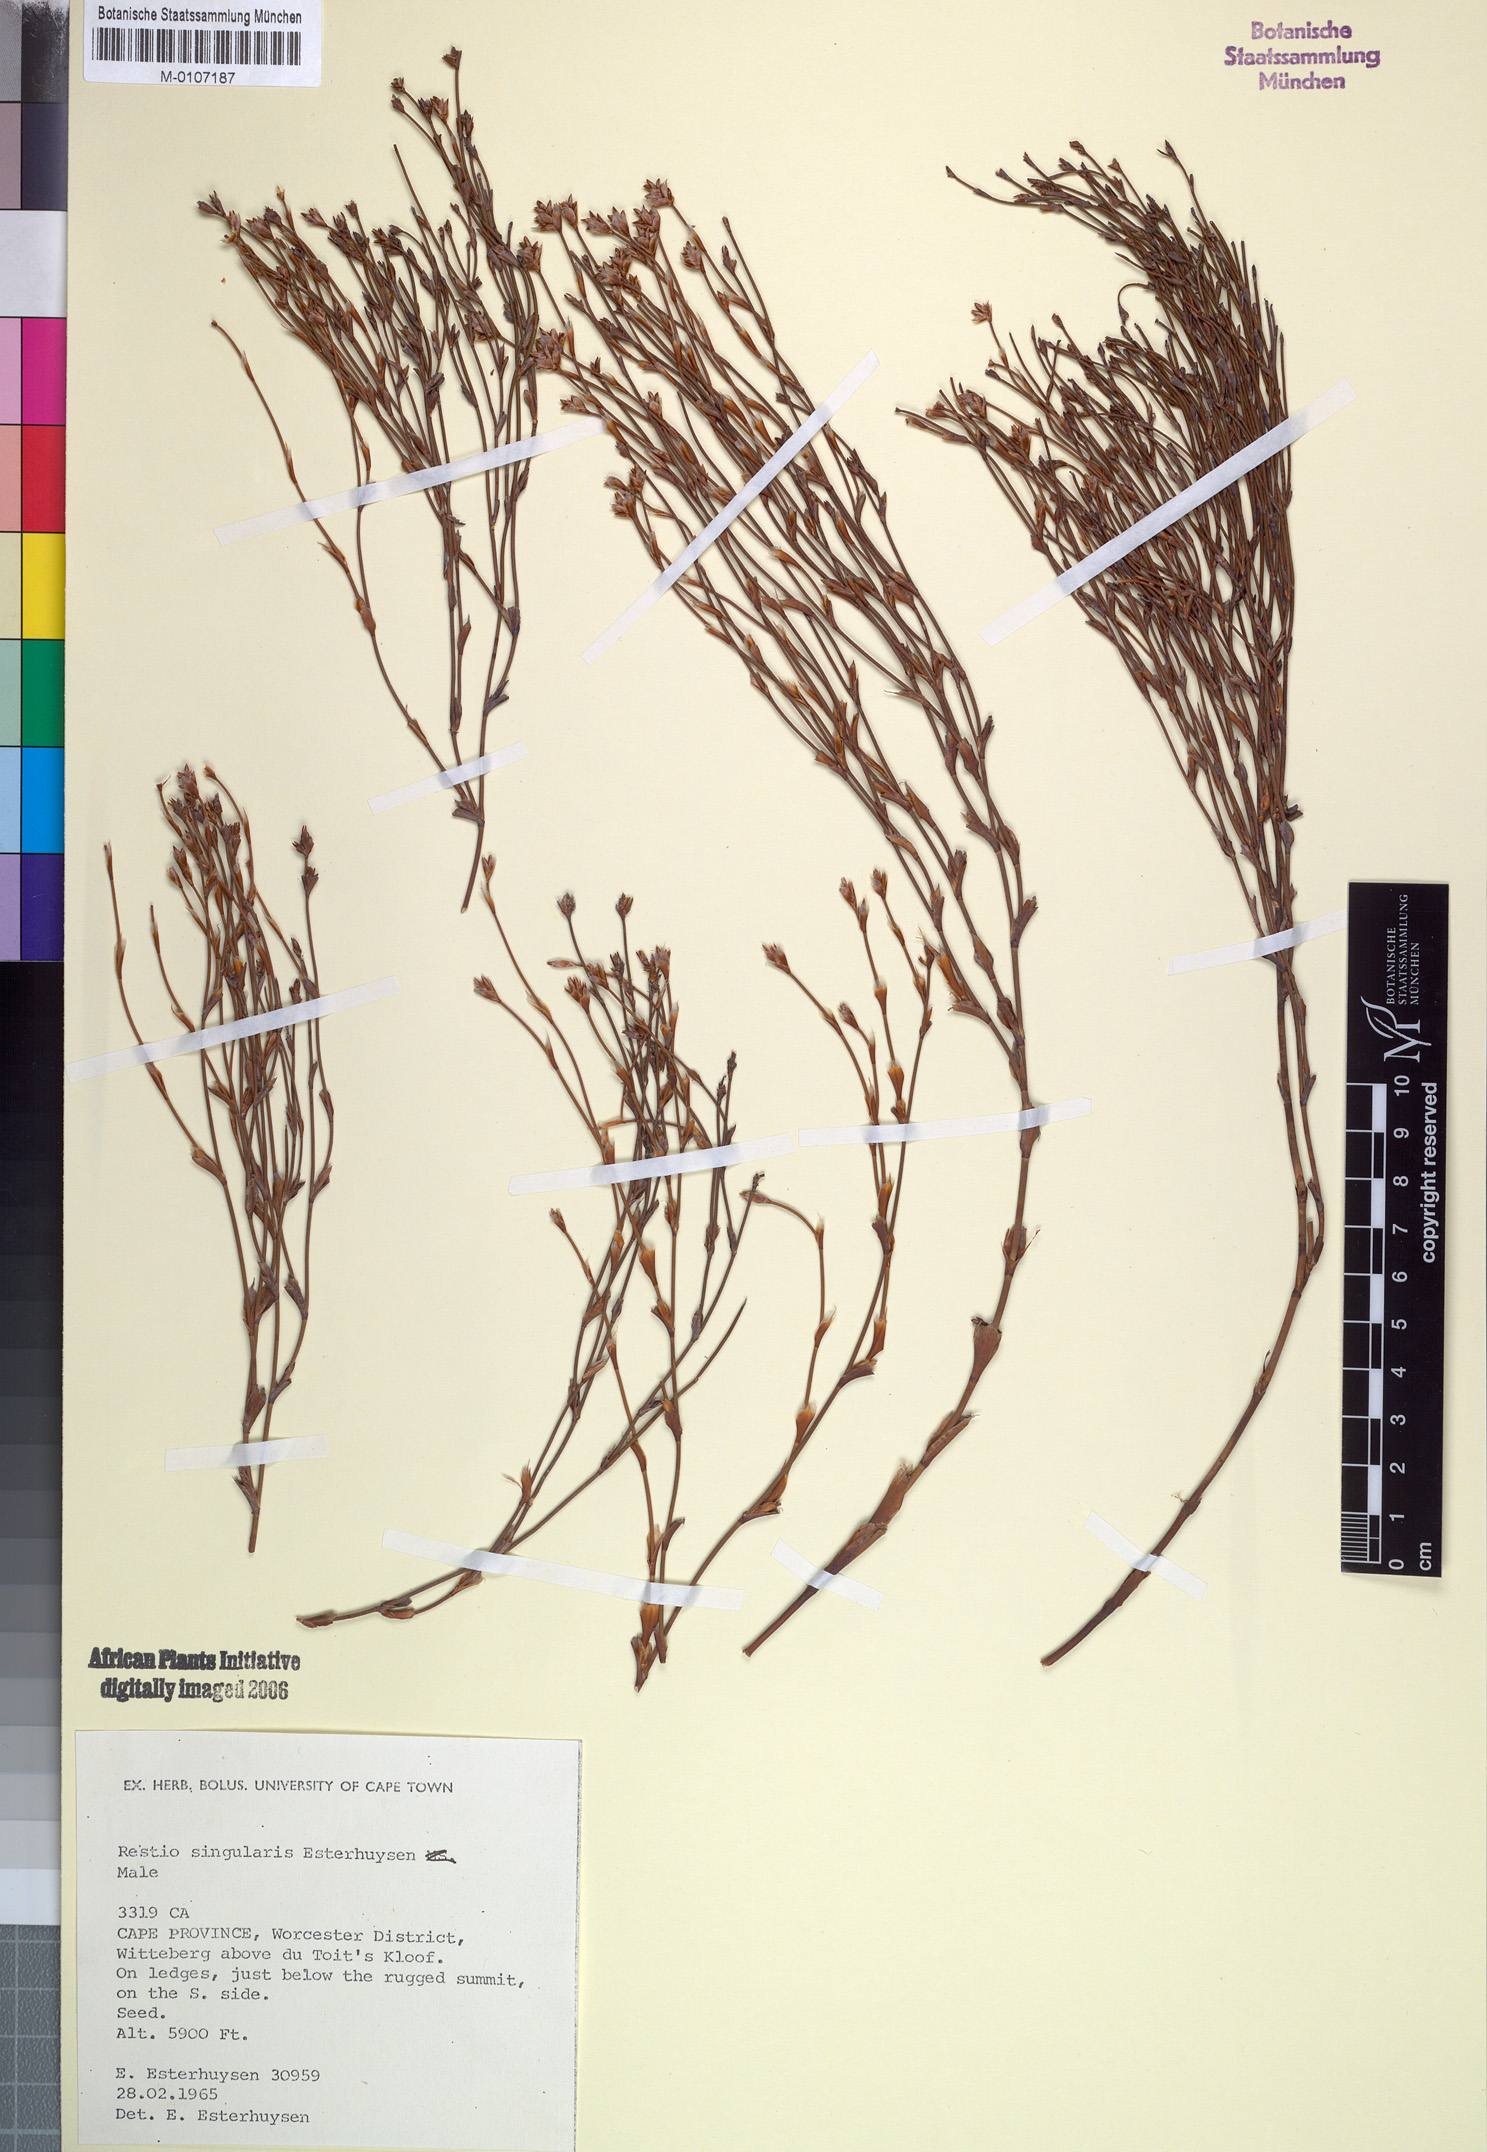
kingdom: Plantae
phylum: Tracheophyta
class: Liliopsida
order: Poales
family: Restionaceae
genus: Restio
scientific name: Restio singularis
